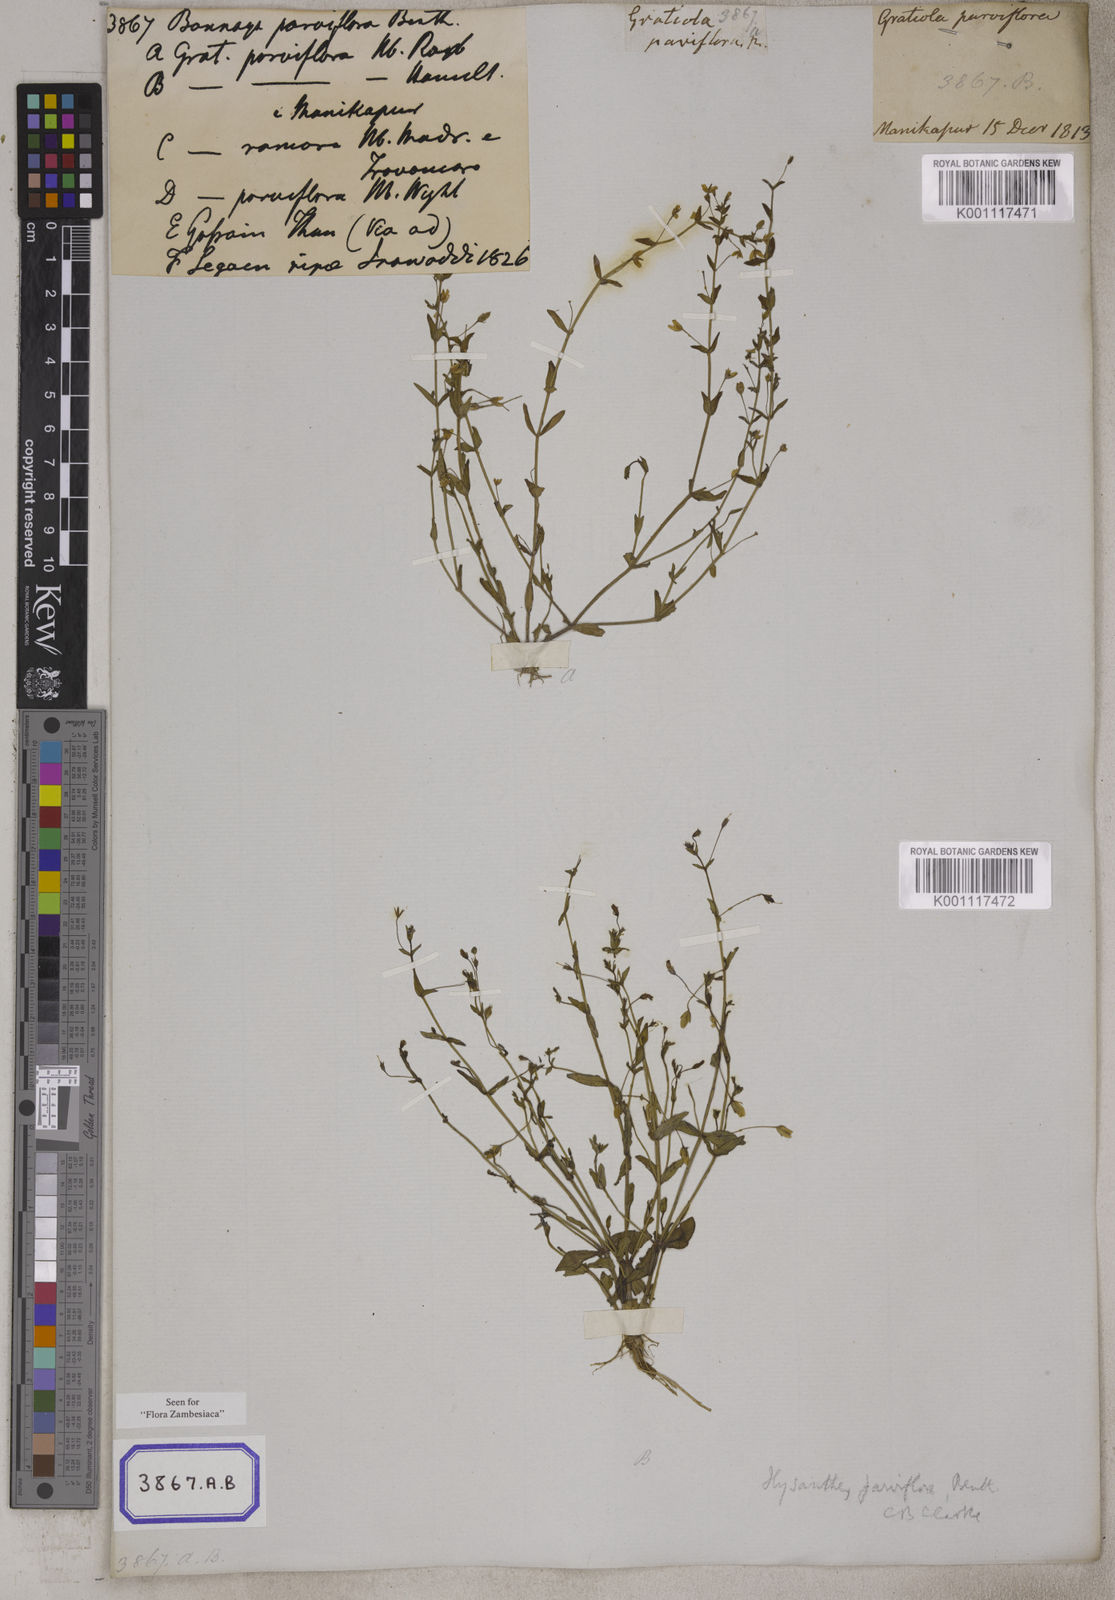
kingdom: Plantae
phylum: Tracheophyta
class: Magnoliopsida
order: Lamiales
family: Linderniaceae
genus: Lindernia
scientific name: Lindernia parviflora
